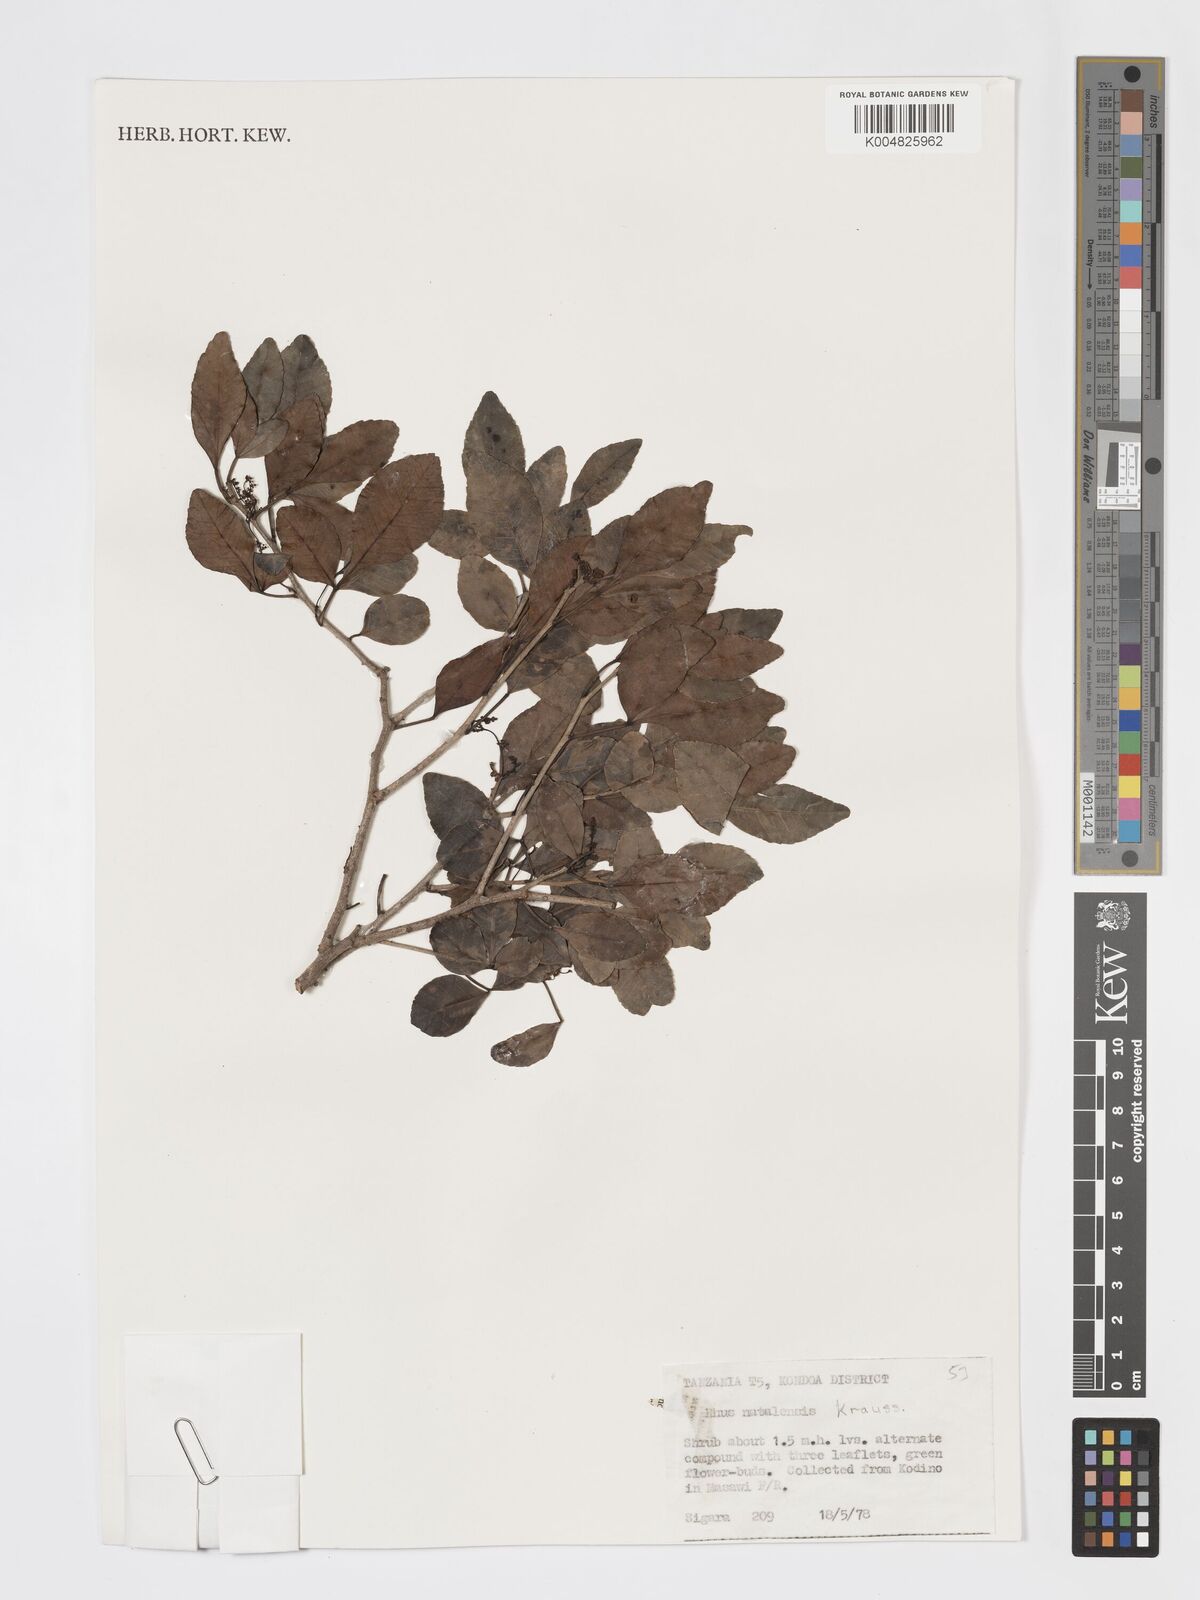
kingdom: Plantae
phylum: Tracheophyta
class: Magnoliopsida
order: Sapindales
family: Anacardiaceae
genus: Searsia
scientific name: Searsia natalensis
